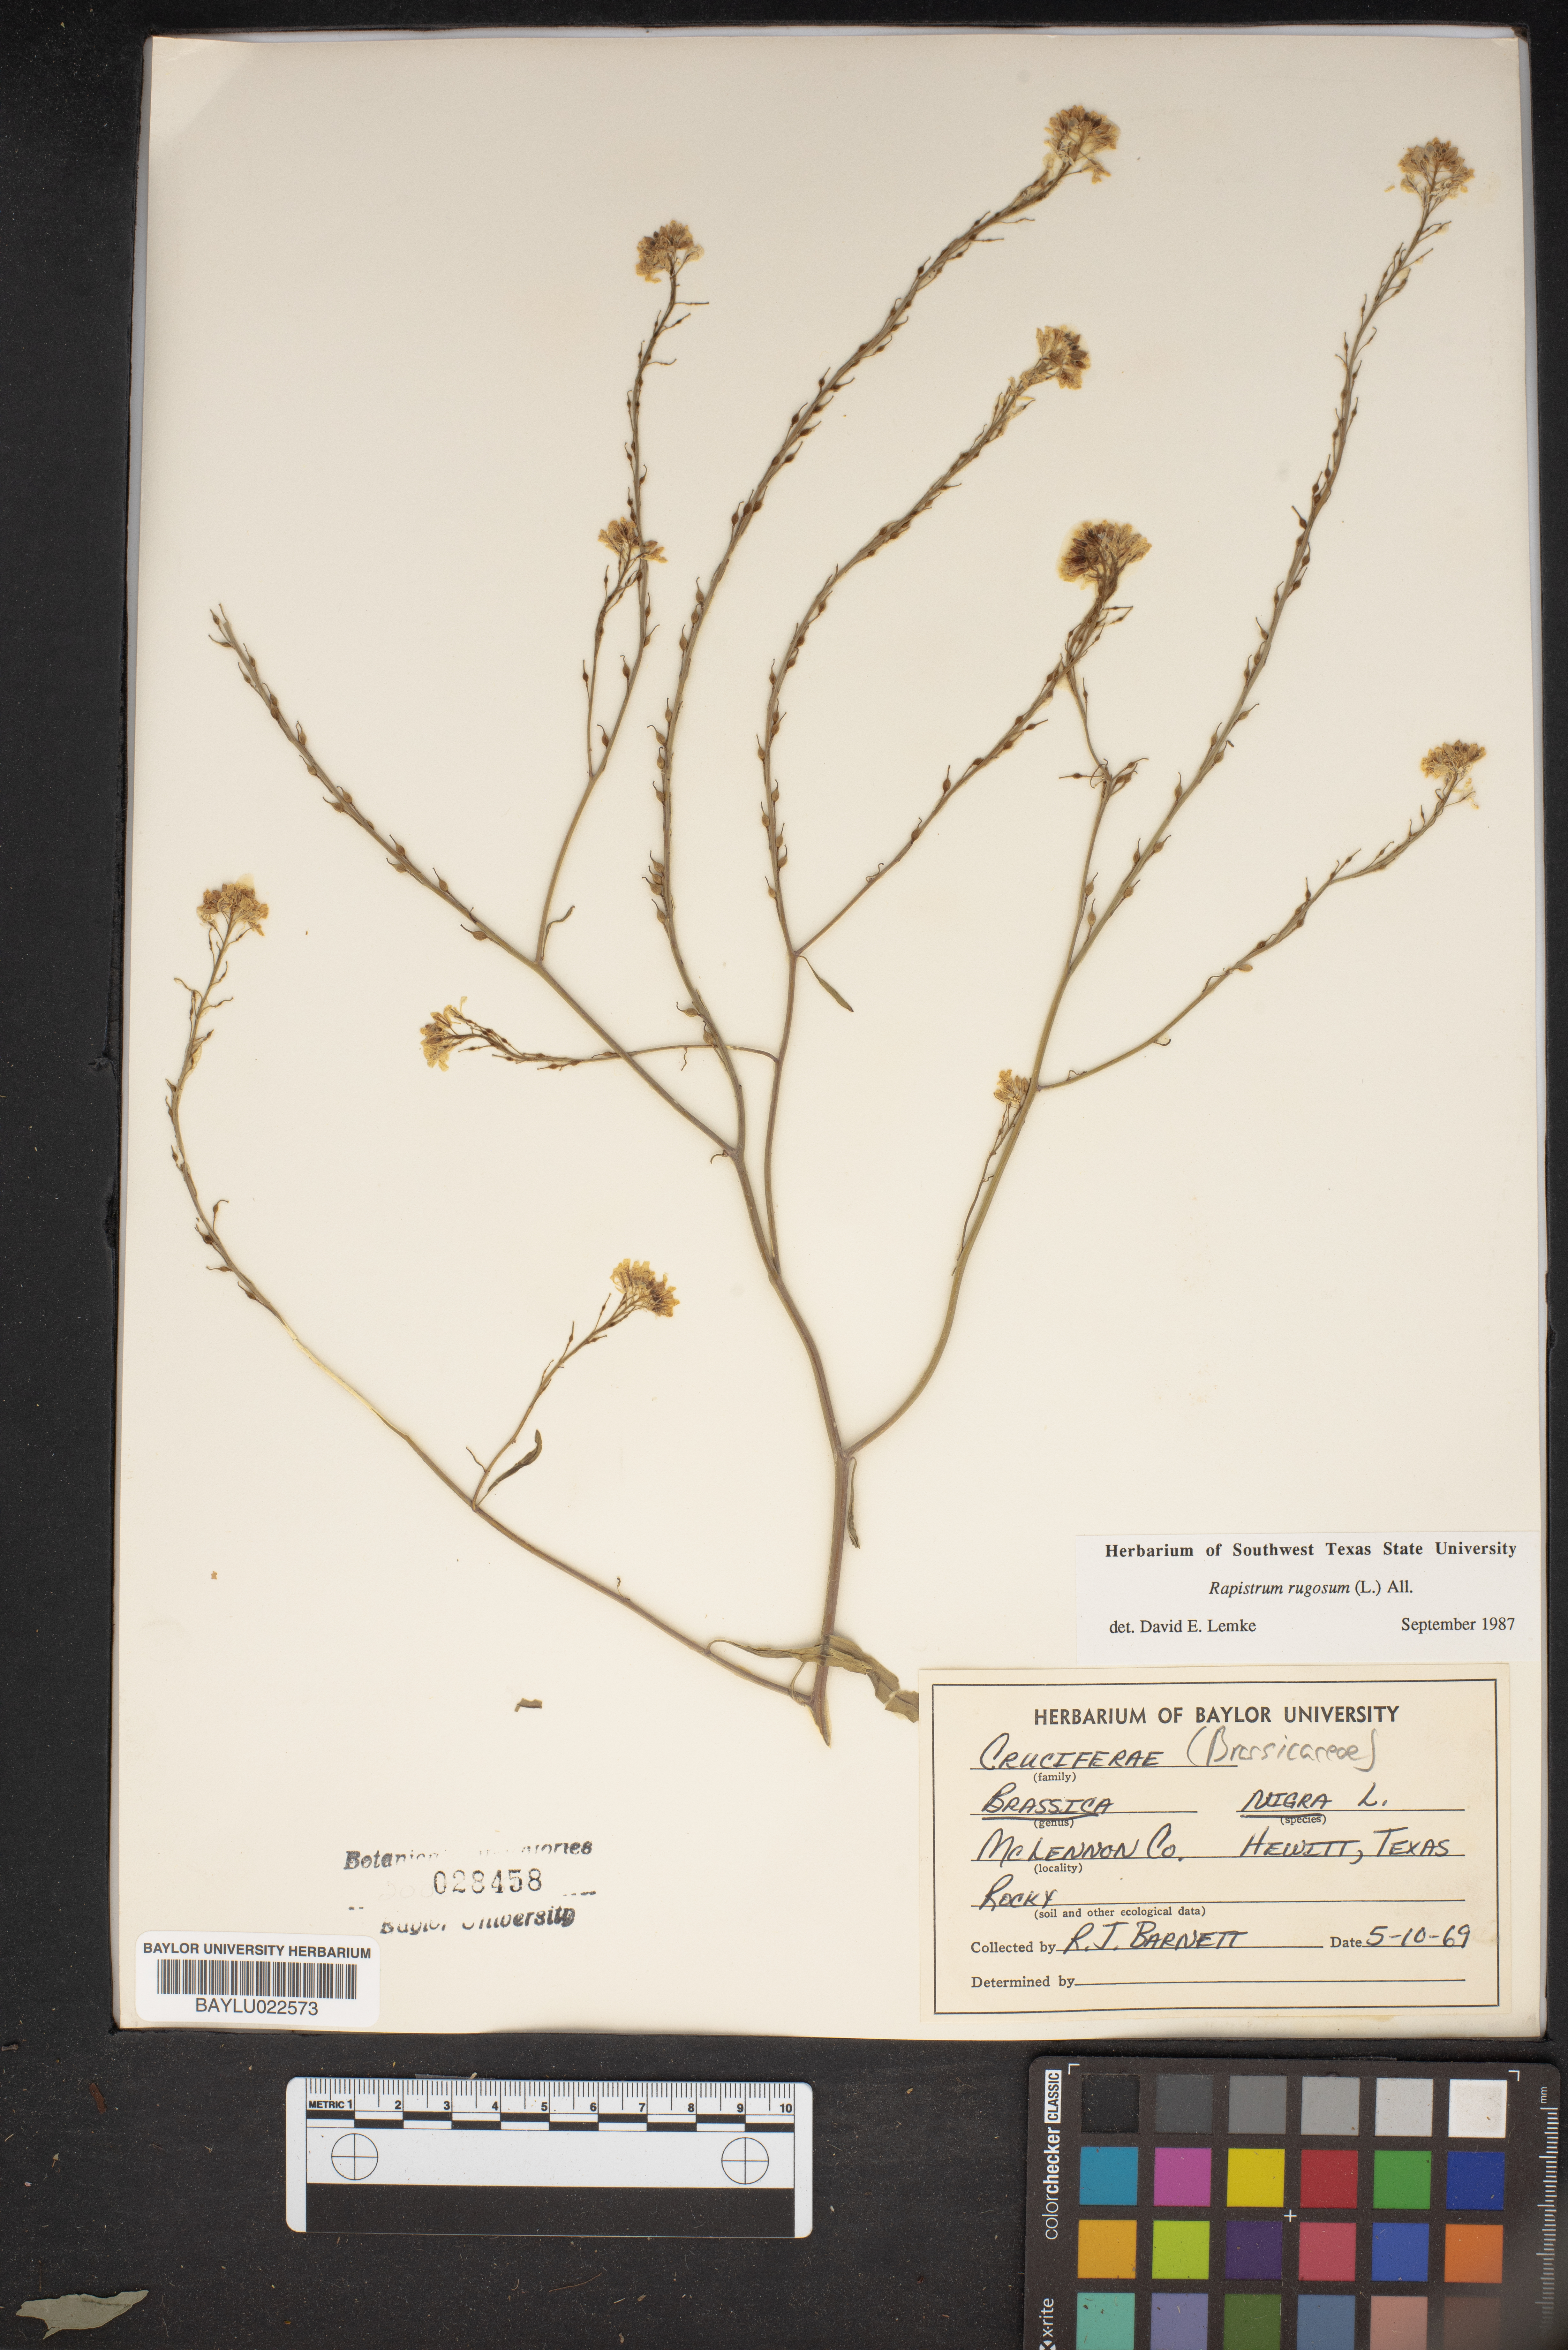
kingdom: Plantae
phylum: Tracheophyta
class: Magnoliopsida
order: Brassicales
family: Brassicaceae
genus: Rapistrum
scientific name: Rapistrum rugosum
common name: Annual bastardcabbage
